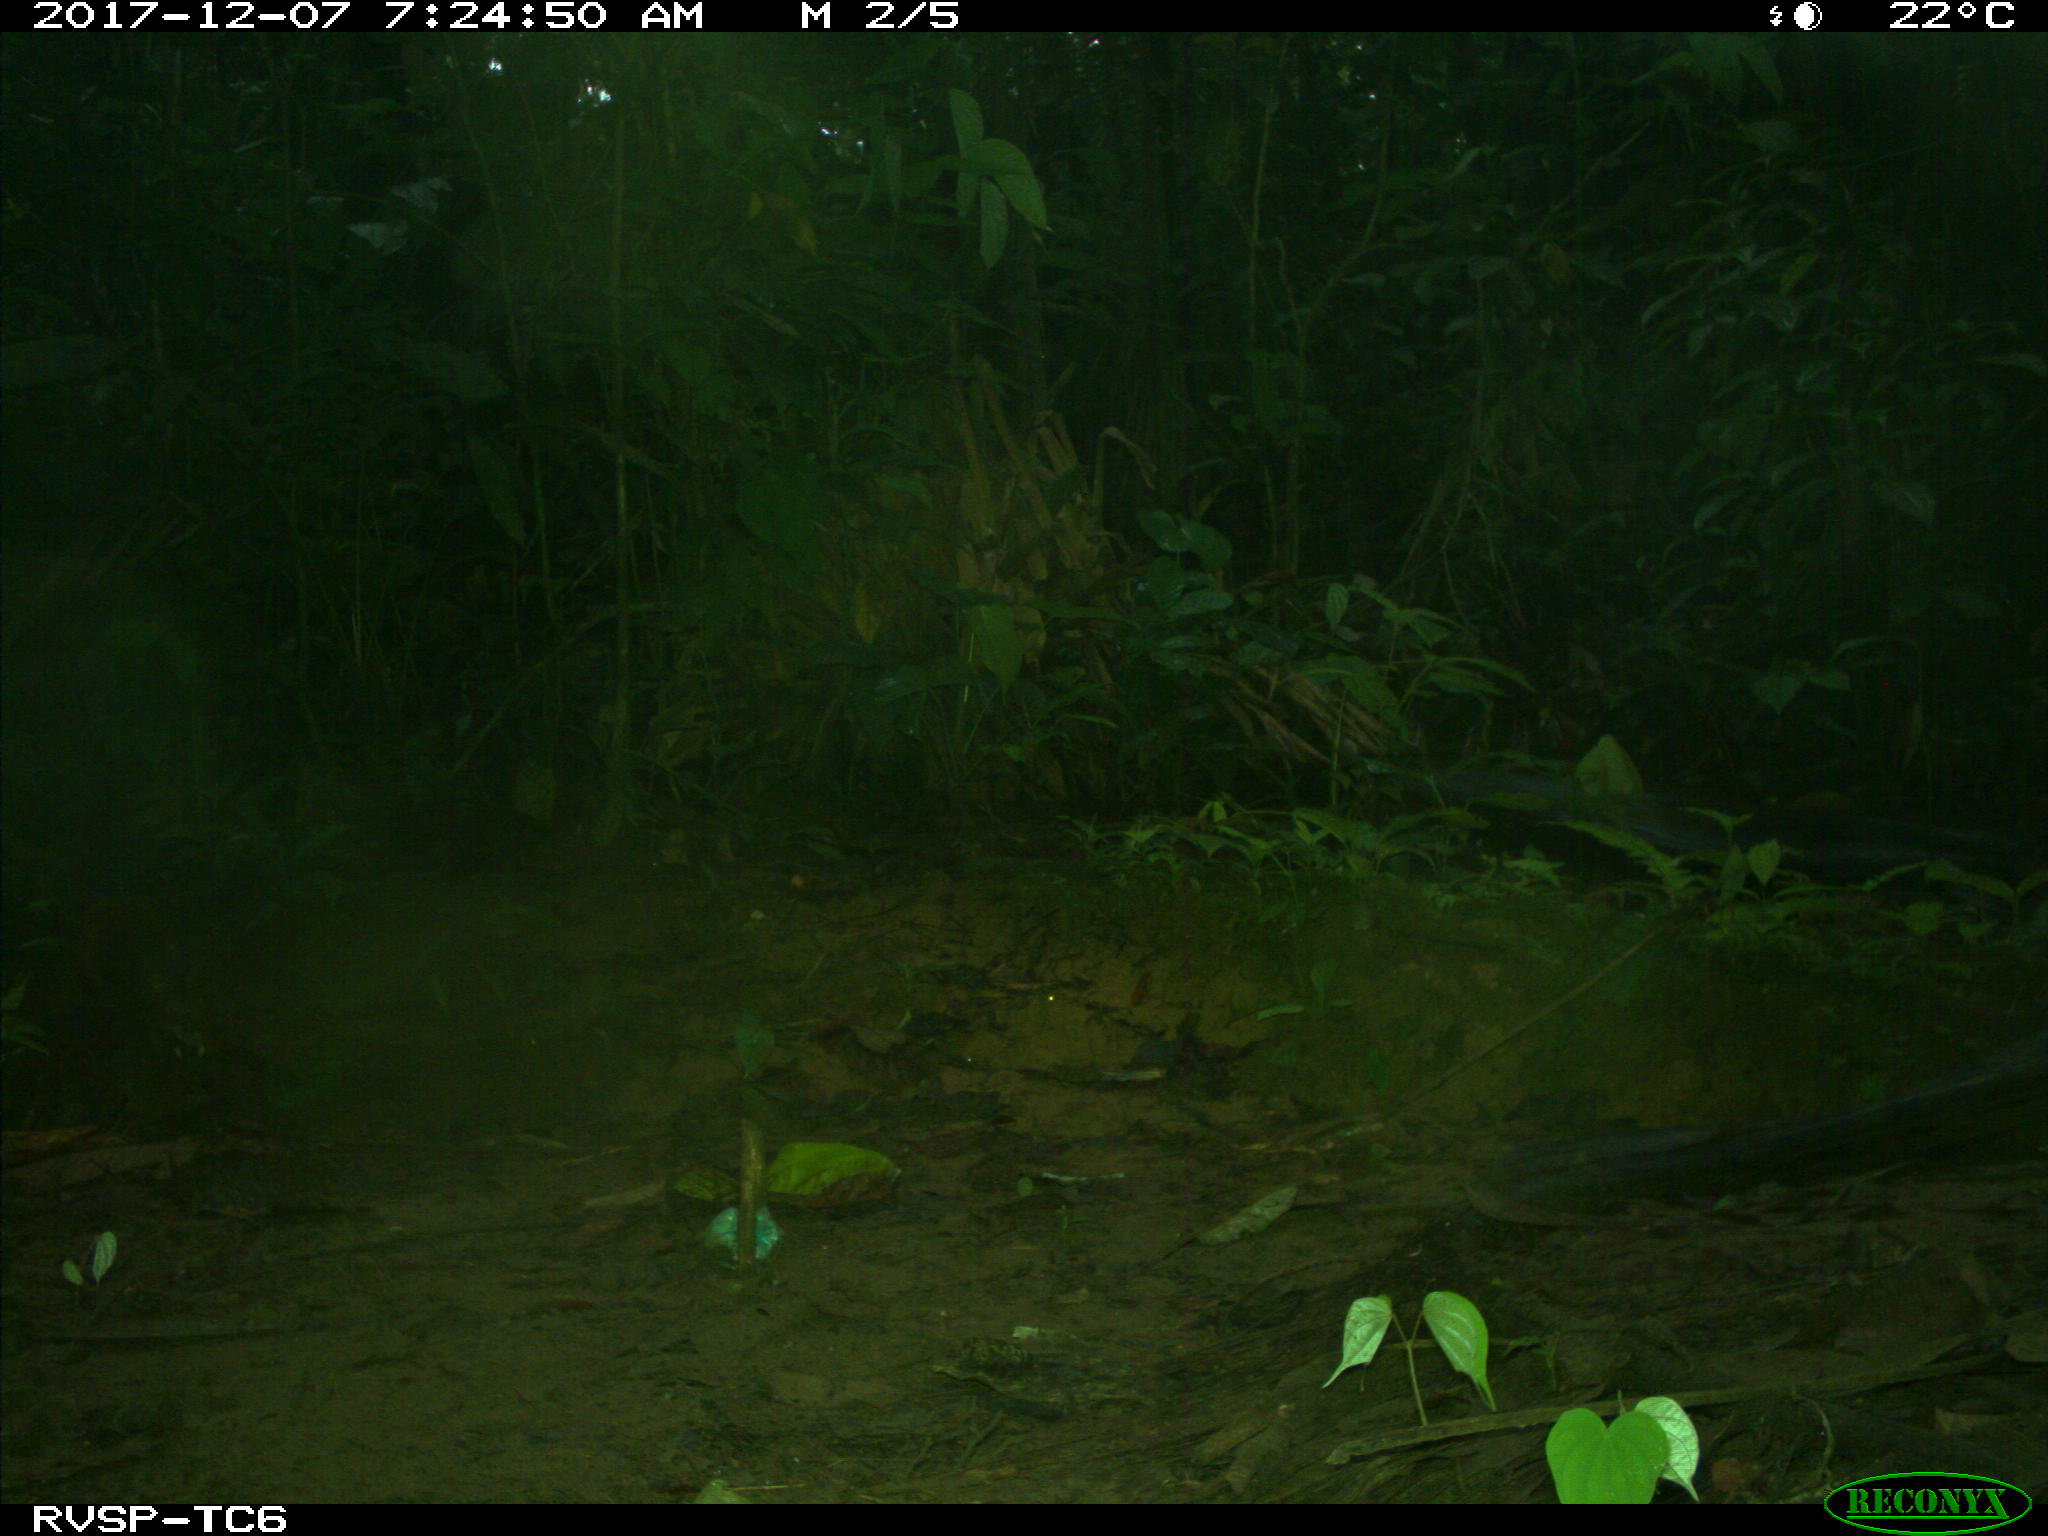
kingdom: Animalia
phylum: Chordata
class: Mammalia
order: Rodentia
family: Dasyproctidae
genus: Dasyprocta
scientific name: Dasyprocta punctata
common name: Central american agouti
